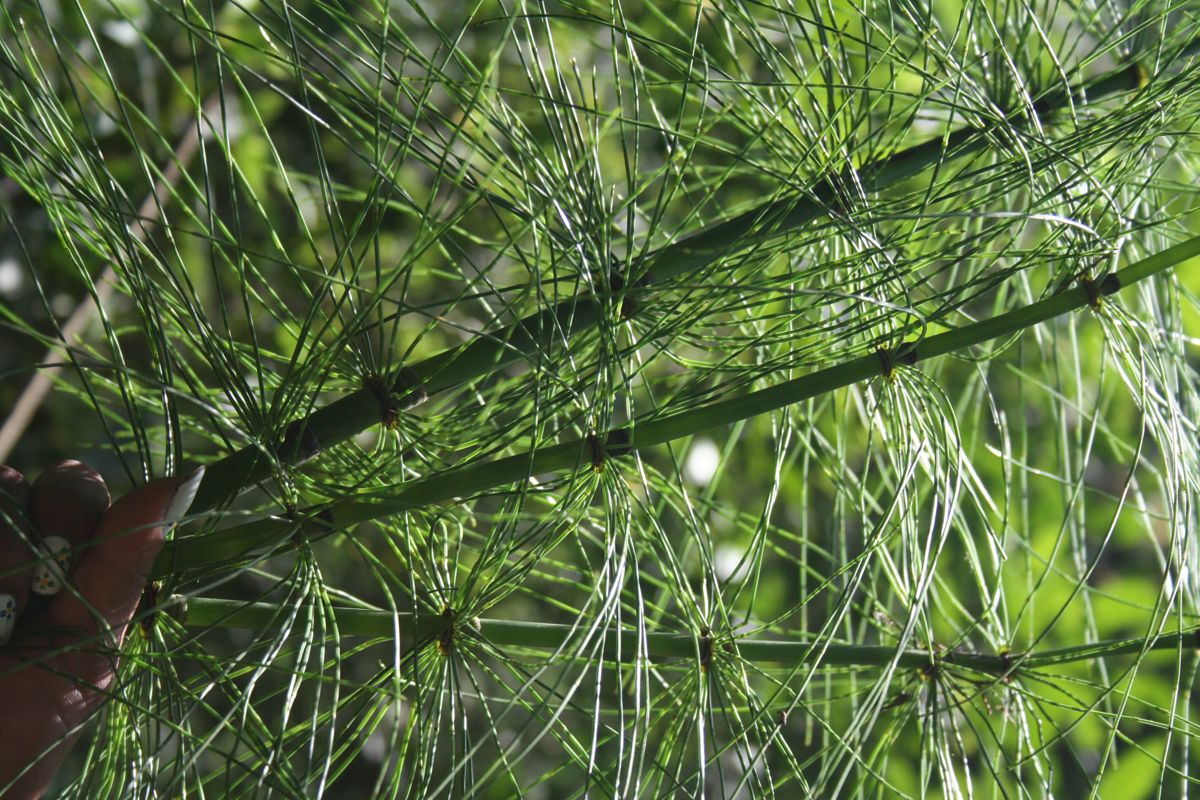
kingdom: Plantae
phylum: Tracheophyta
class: Polypodiopsida
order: Equisetales
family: Equisetaceae
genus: Equisetum
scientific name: Equisetum giganteum
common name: Giant horsetail
